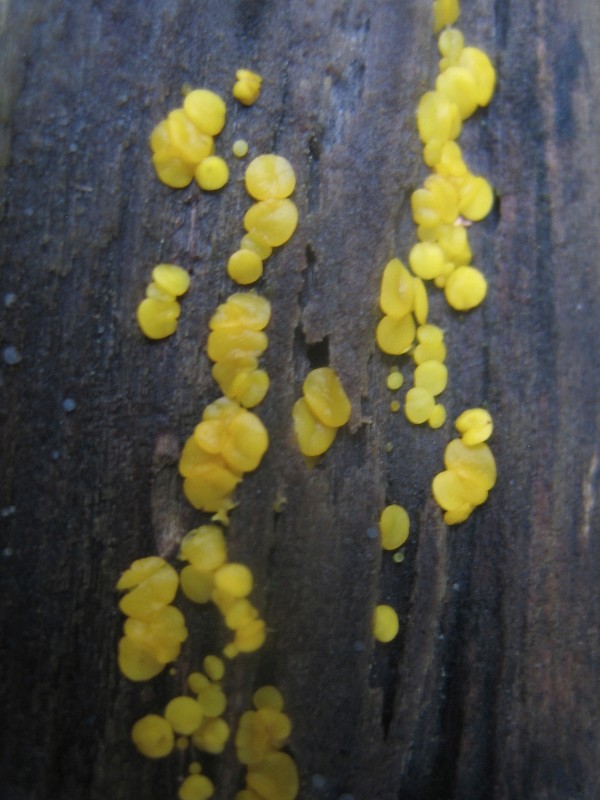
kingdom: Fungi
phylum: Ascomycota
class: Leotiomycetes
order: Helotiales
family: Pezizellaceae
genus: Calycina
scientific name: Calycina citrina
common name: almindelig gulskive
